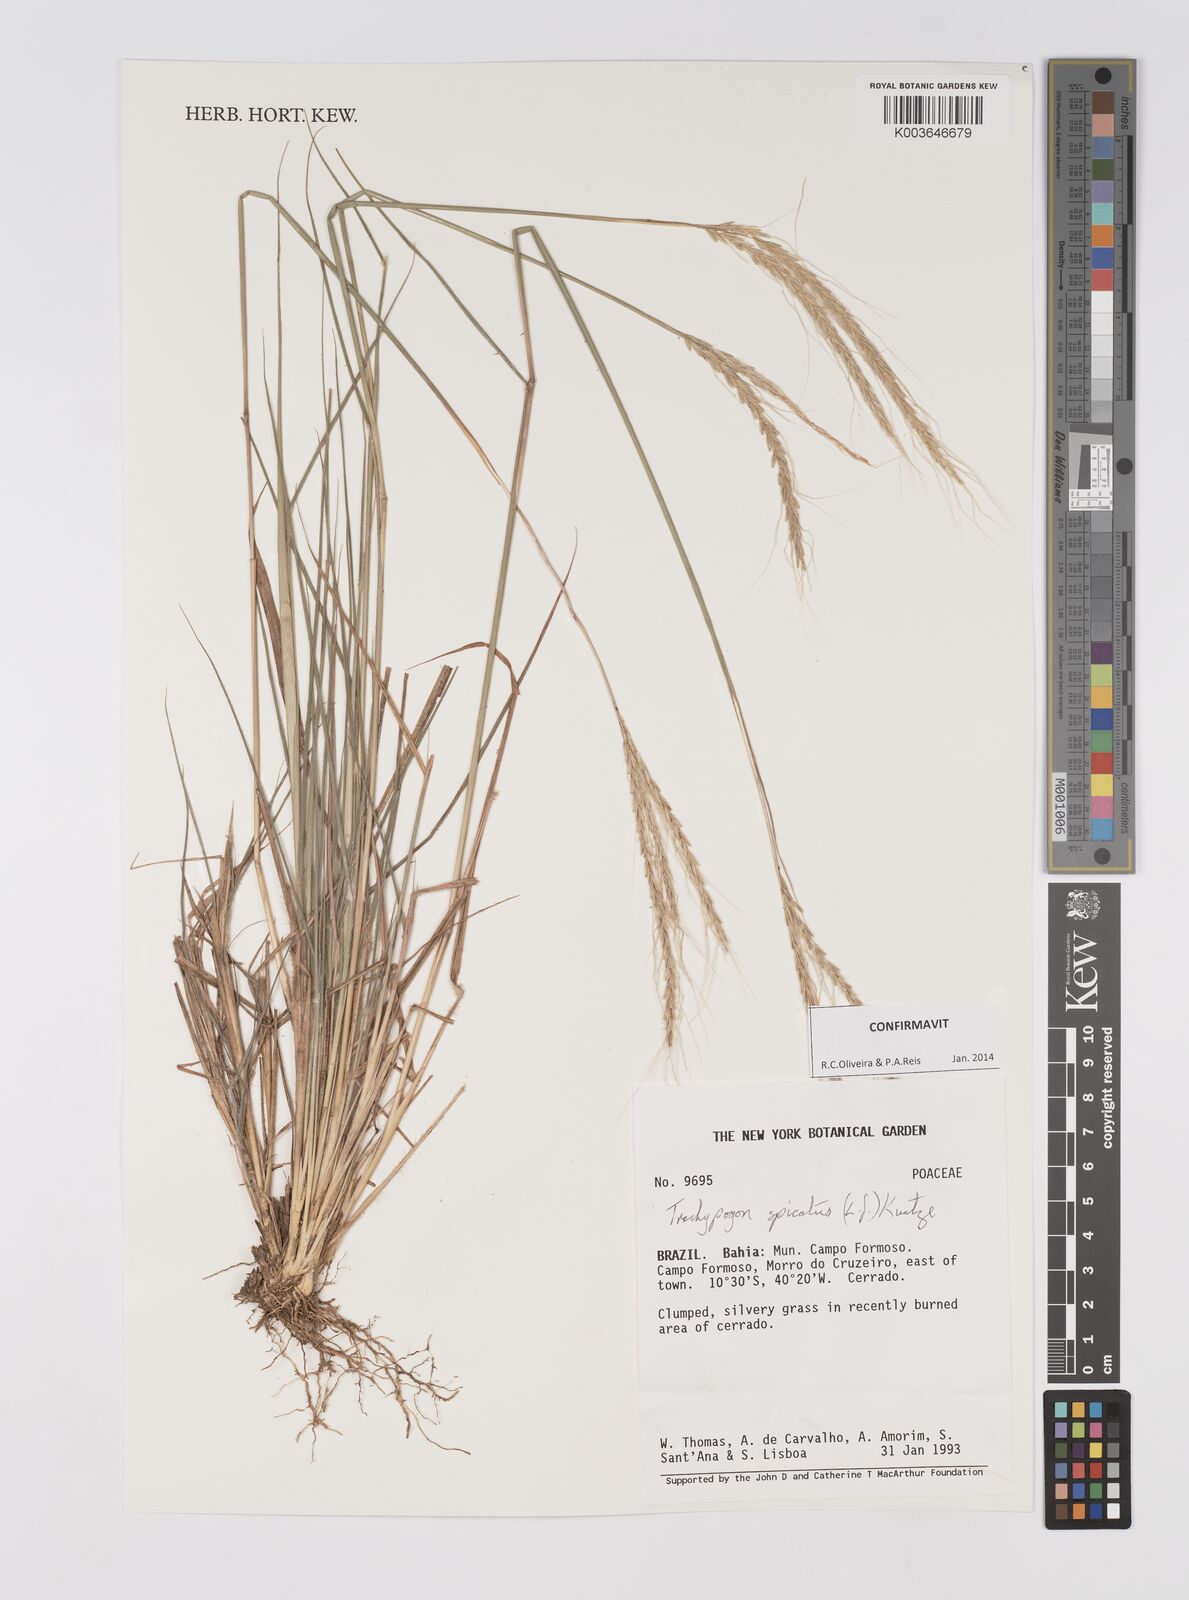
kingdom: Plantae
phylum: Tracheophyta
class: Liliopsida
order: Poales
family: Poaceae
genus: Trachypogon
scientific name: Trachypogon spicatus
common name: Crinkle-awn
